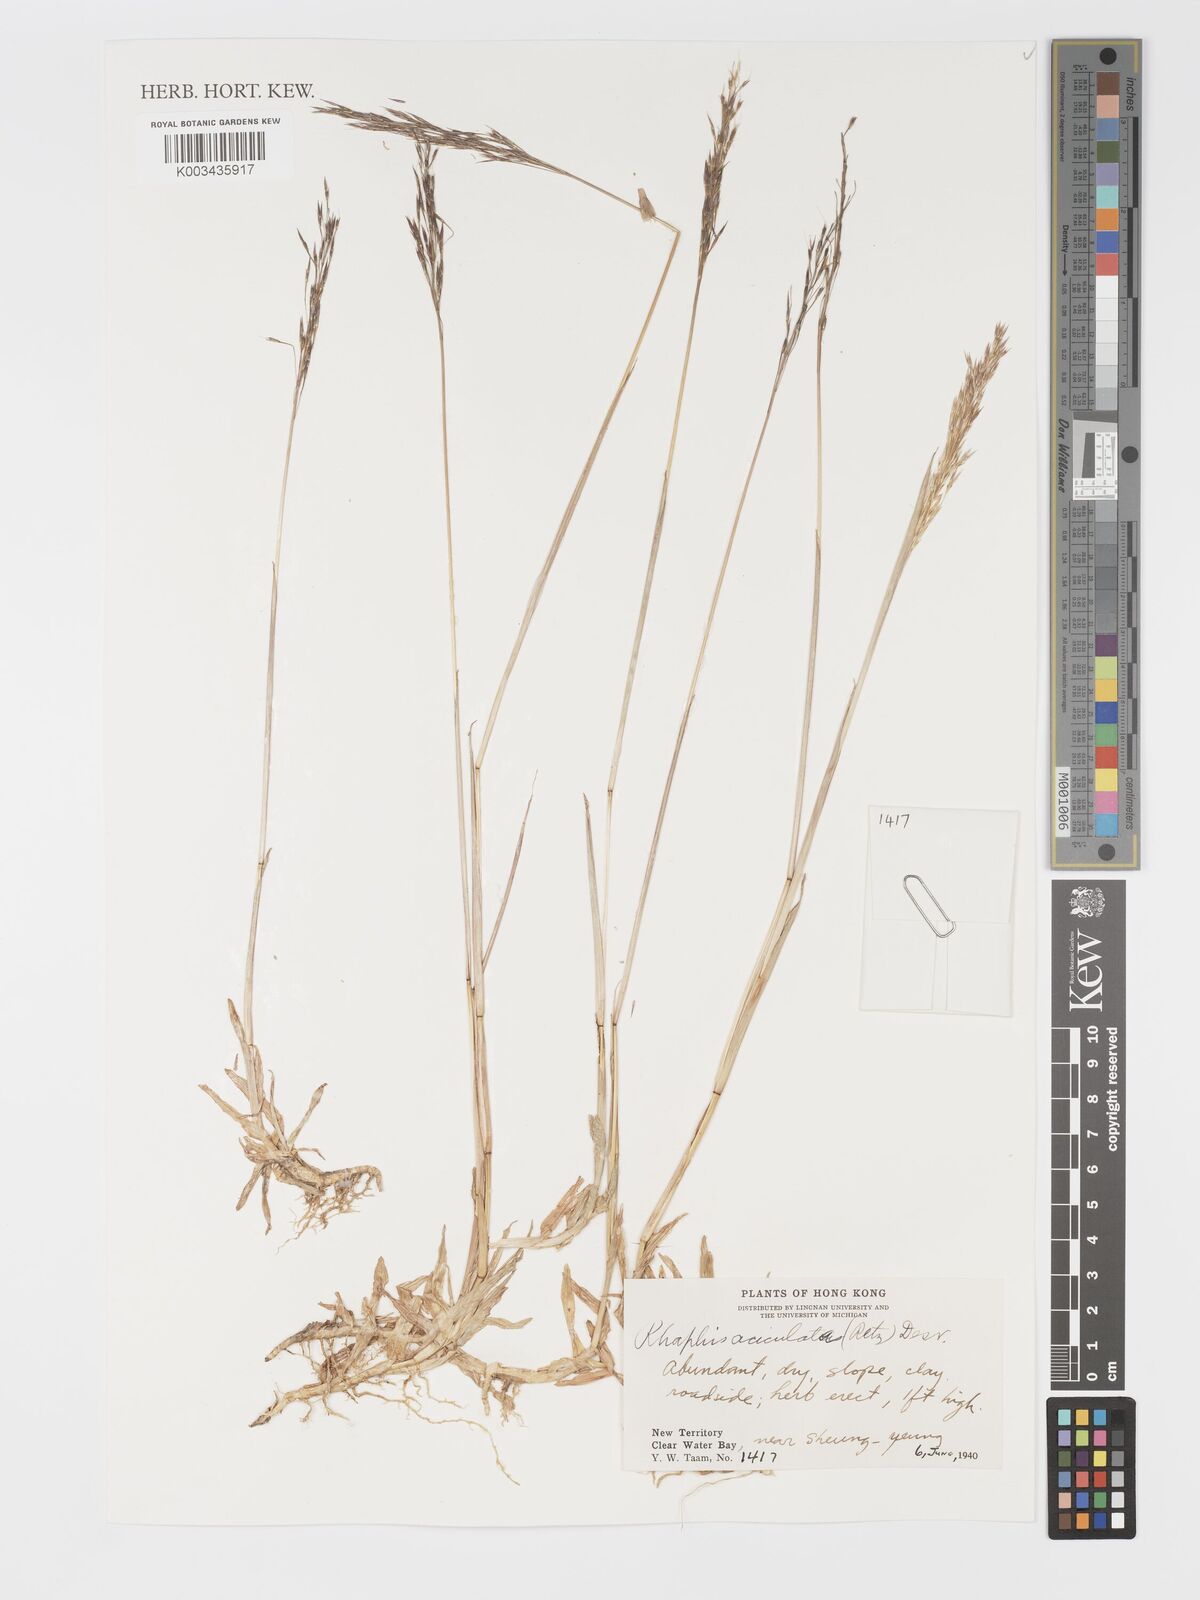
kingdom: Plantae
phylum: Tracheophyta
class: Liliopsida
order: Poales
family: Poaceae
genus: Chrysopogon
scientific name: Chrysopogon aciculatus
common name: Pilipiliula
